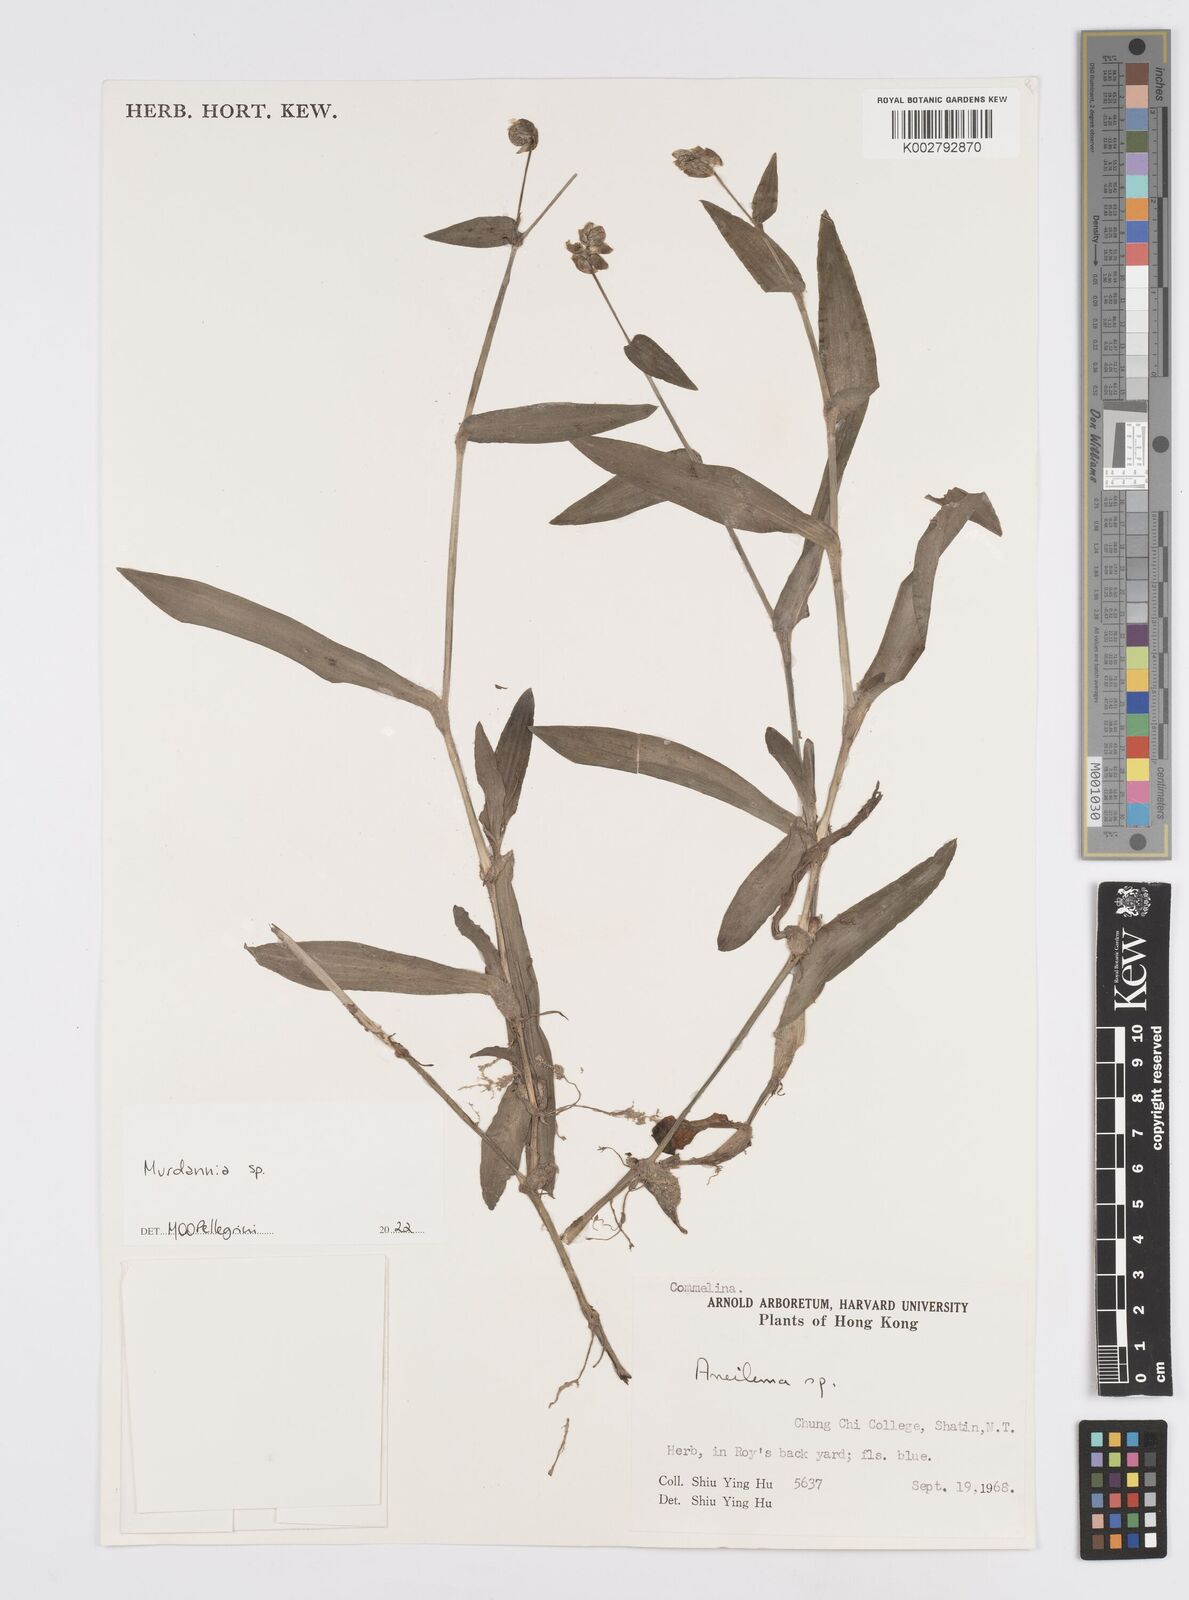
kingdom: Plantae
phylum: Tracheophyta
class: Liliopsida
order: Commelinales
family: Commelinaceae
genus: Murdannia
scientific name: Murdannia
